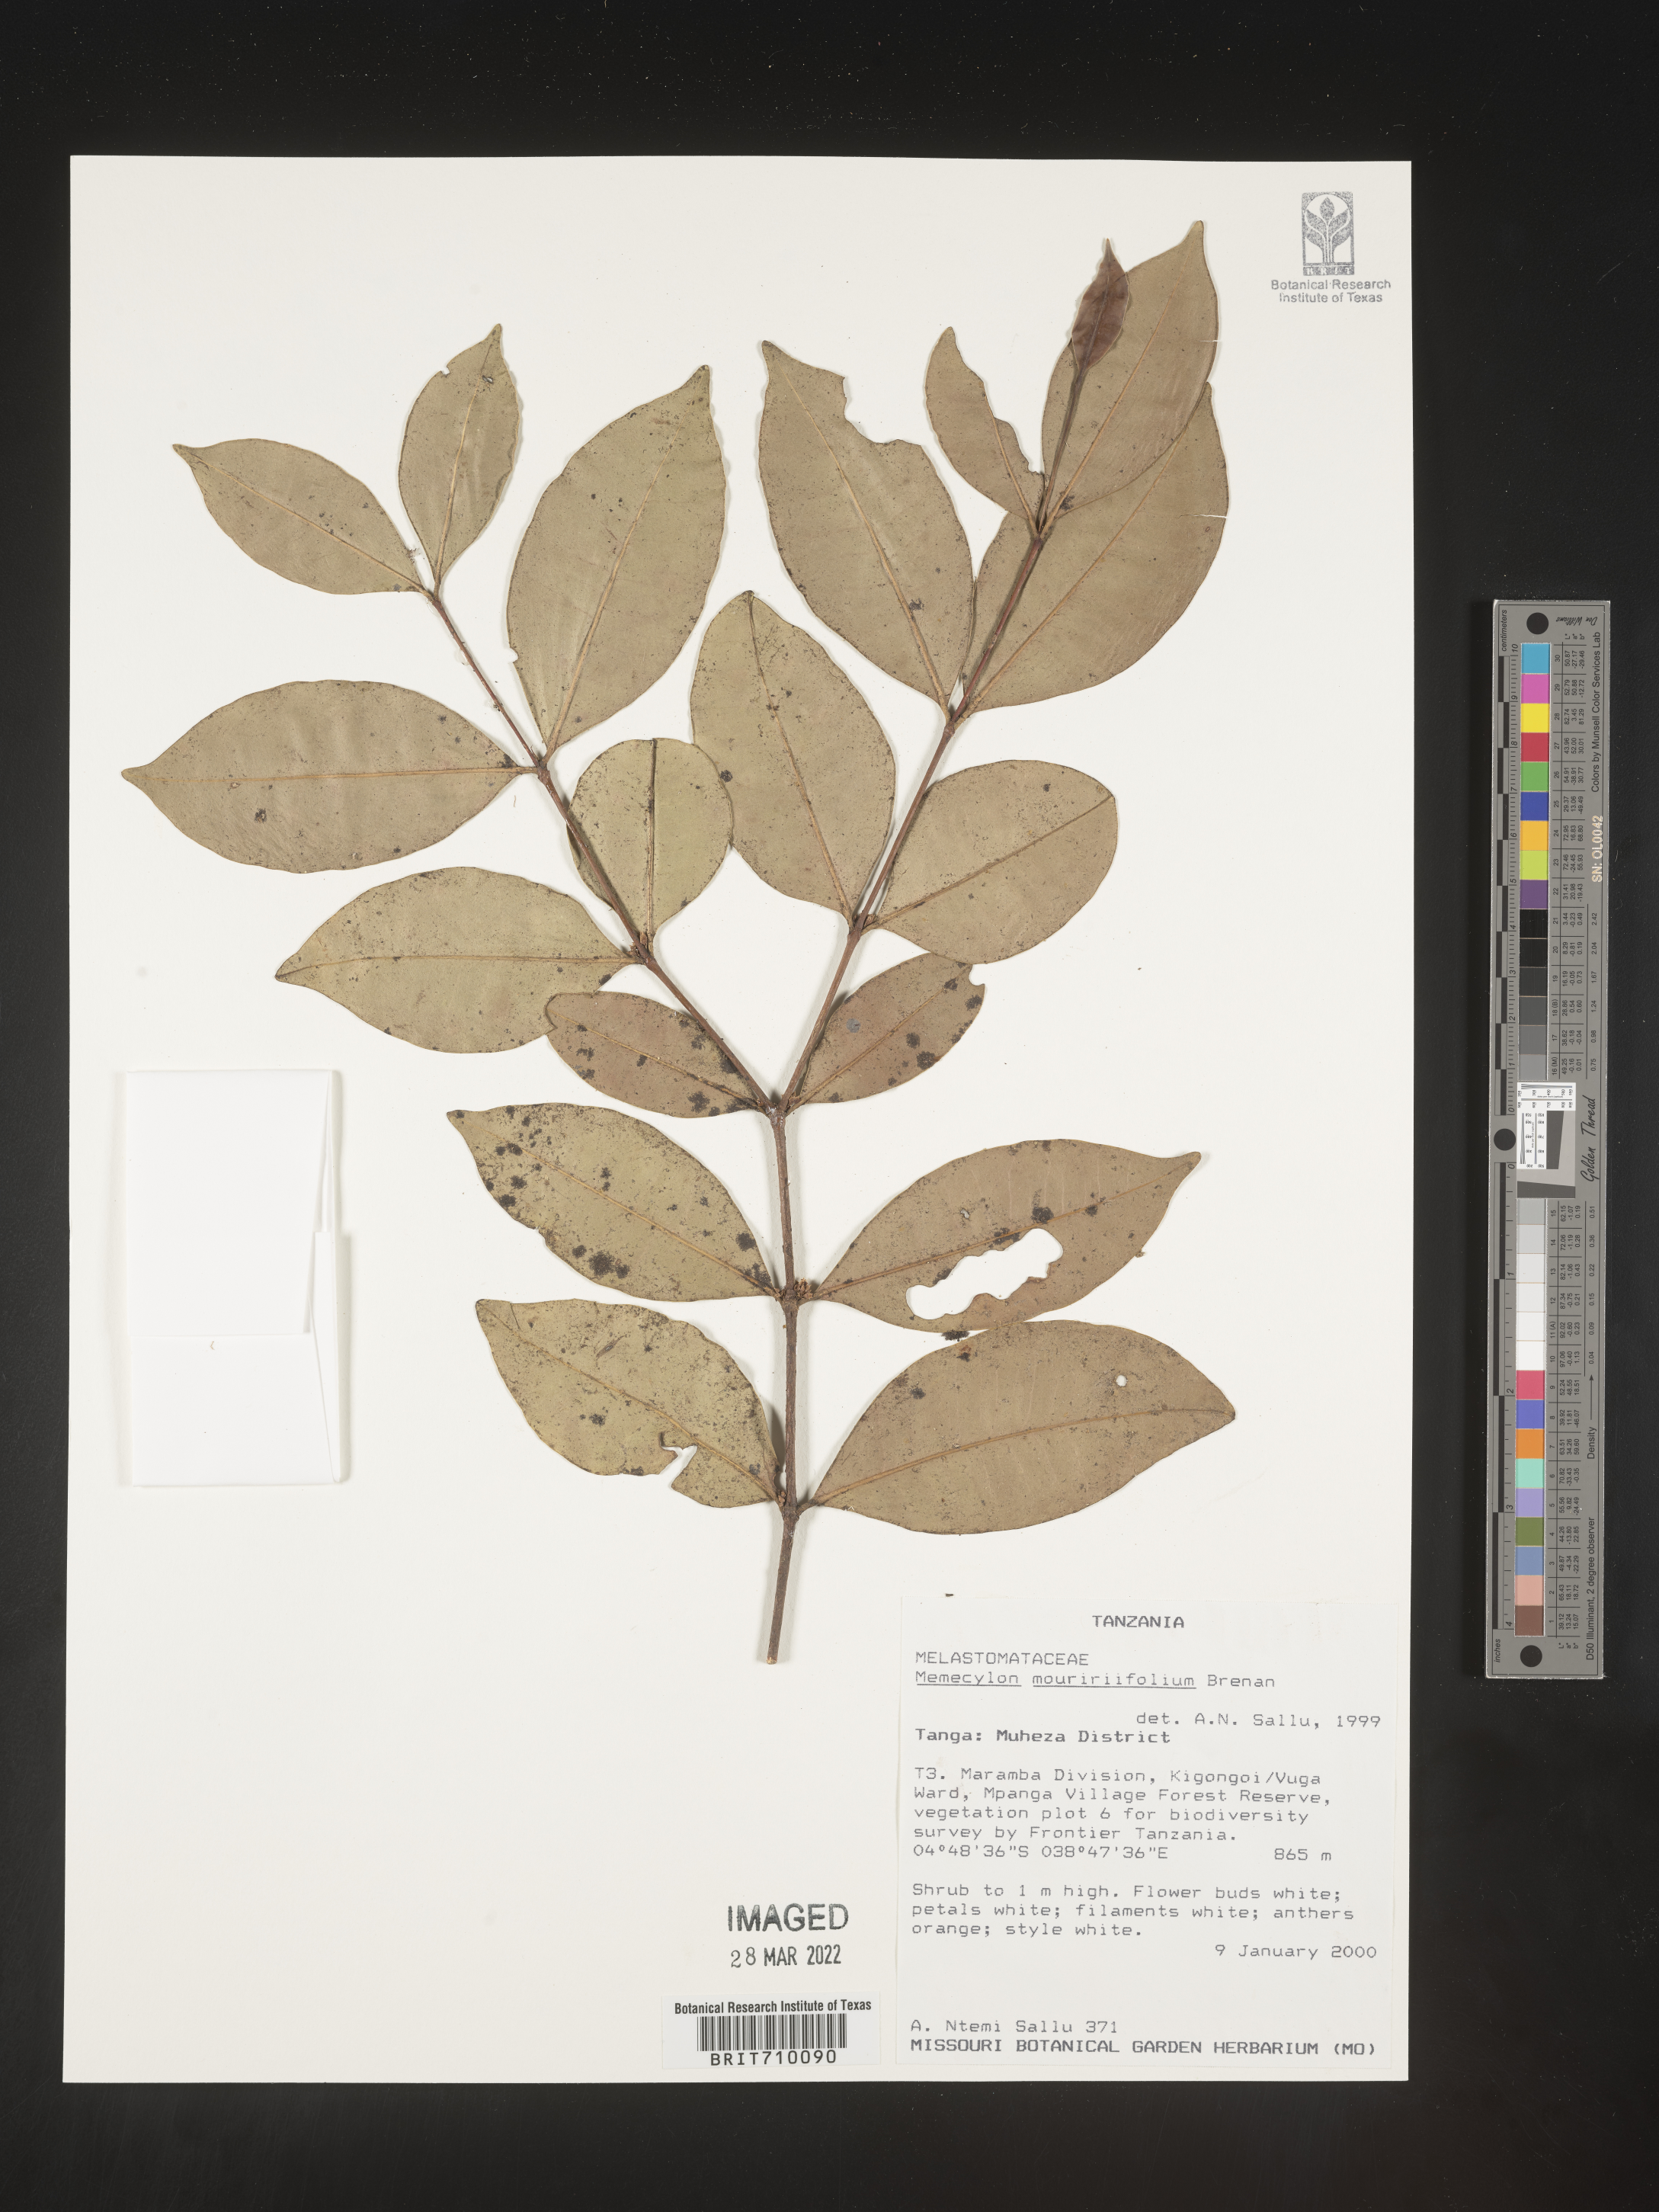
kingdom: Plantae
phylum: Tracheophyta
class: Magnoliopsida
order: Myrtales
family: Melastomataceae
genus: Memecylon
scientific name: Memecylon
